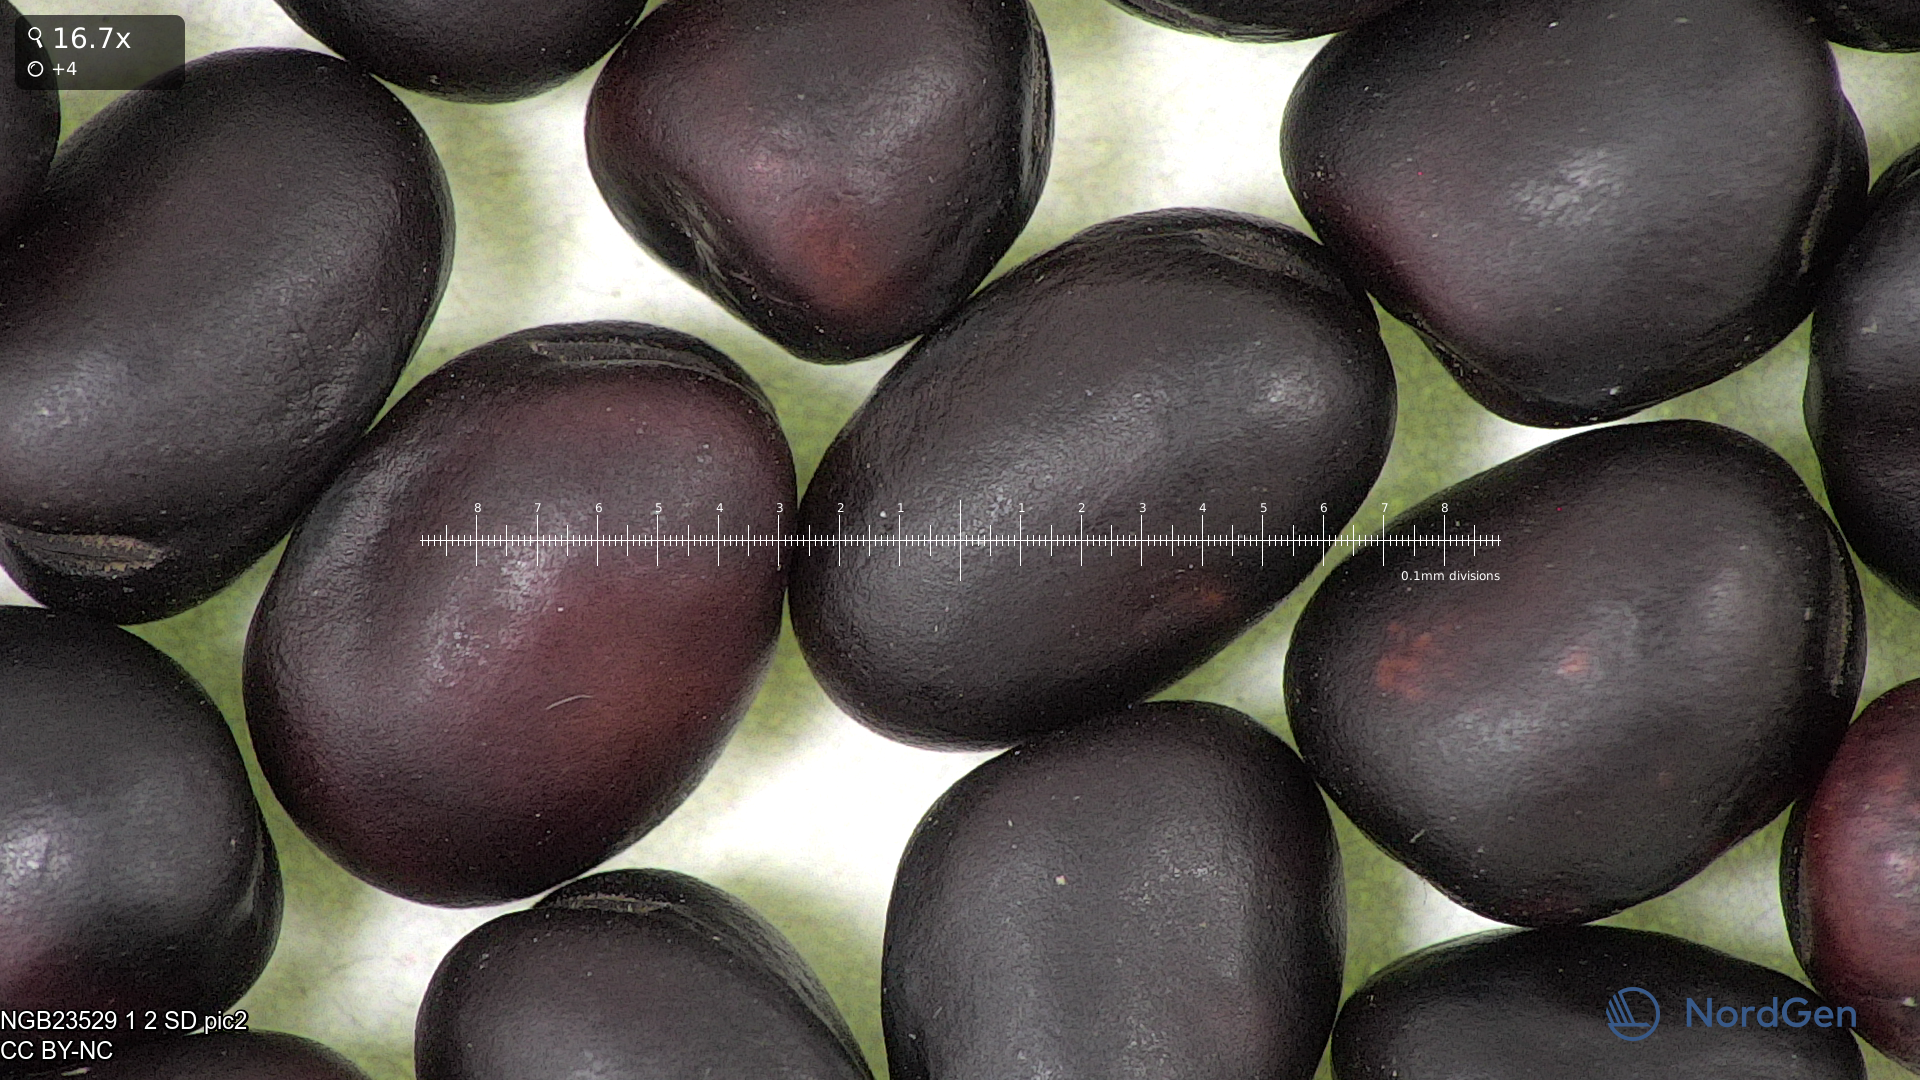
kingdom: Plantae
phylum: Tracheophyta
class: Magnoliopsida
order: Fabales
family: Fabaceae
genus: Vicia
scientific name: Vicia faba
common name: Broad bean
